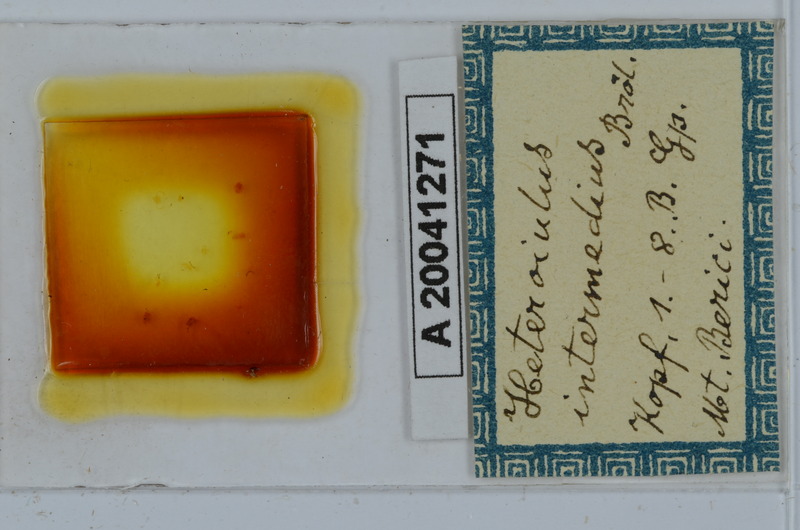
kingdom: Animalia
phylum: Arthropoda
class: Diplopoda
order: Julida
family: Julidae
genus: Heteroiulus
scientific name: Heteroiulus intermedius
